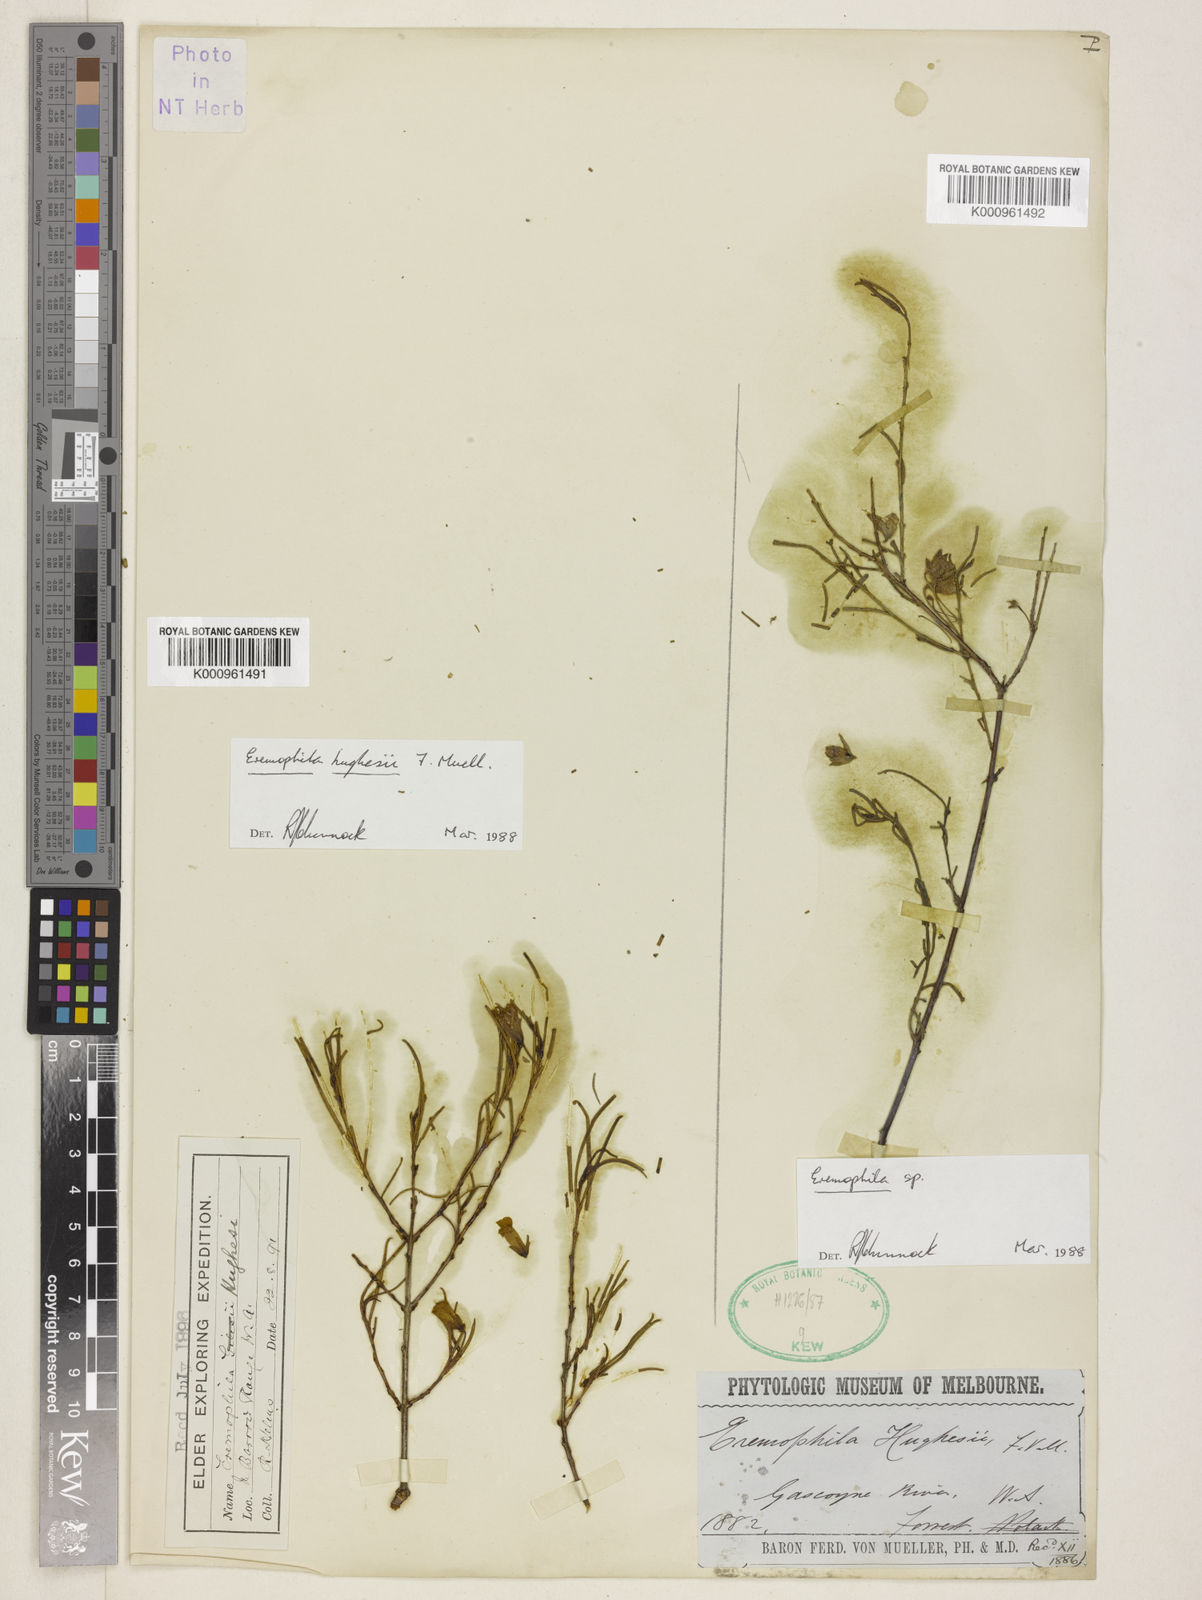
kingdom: Plantae
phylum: Tracheophyta
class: Magnoliopsida
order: Lamiales
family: Scrophulariaceae
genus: Eremophila
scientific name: Eremophila hughesii
